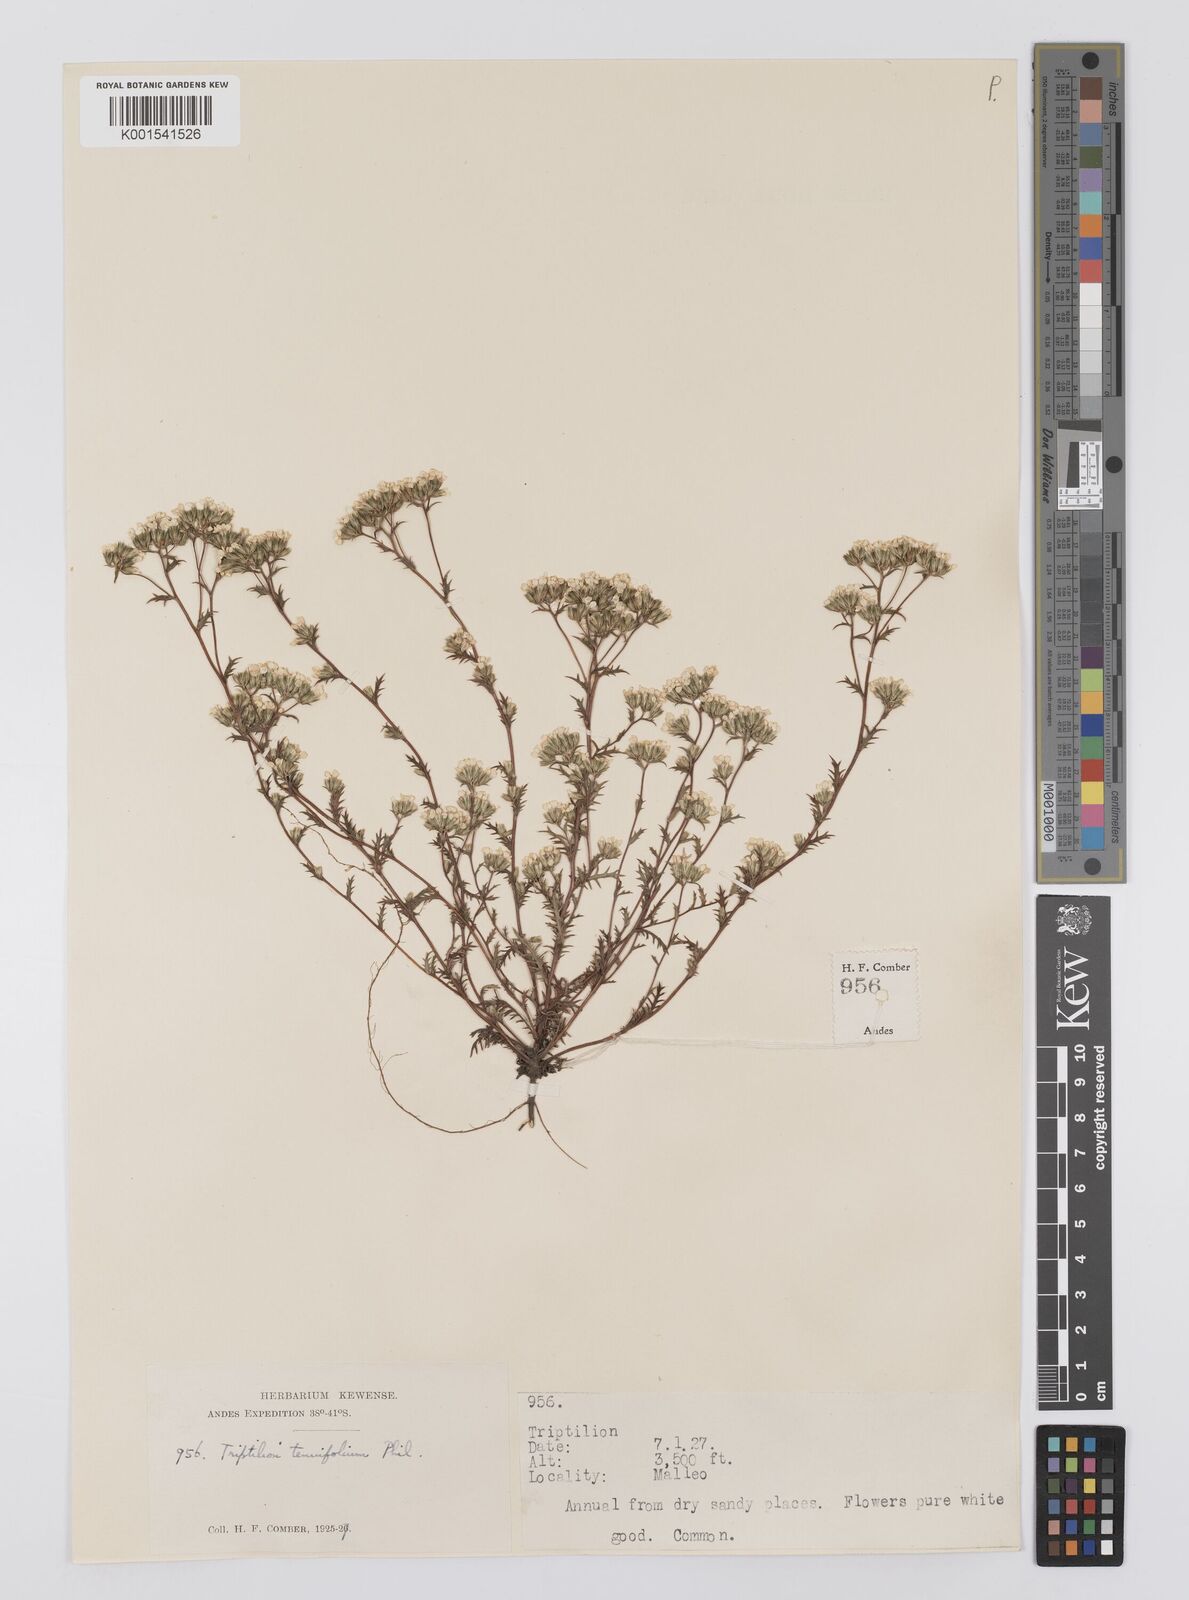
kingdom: Plantae
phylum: Tracheophyta
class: Magnoliopsida
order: Asterales
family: Asteraceae
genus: Triptilion
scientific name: Triptilion achilleae
